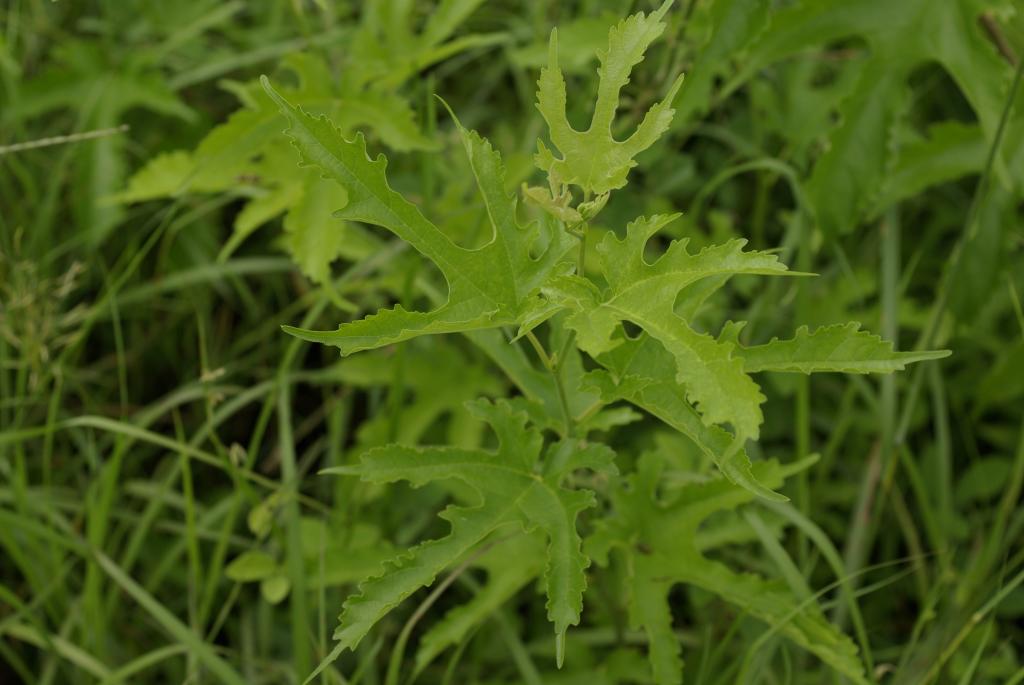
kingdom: Plantae
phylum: Tracheophyta
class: Magnoliopsida
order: Rosales
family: Moraceae
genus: Broussonetia
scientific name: Broussonetia papyrifera
